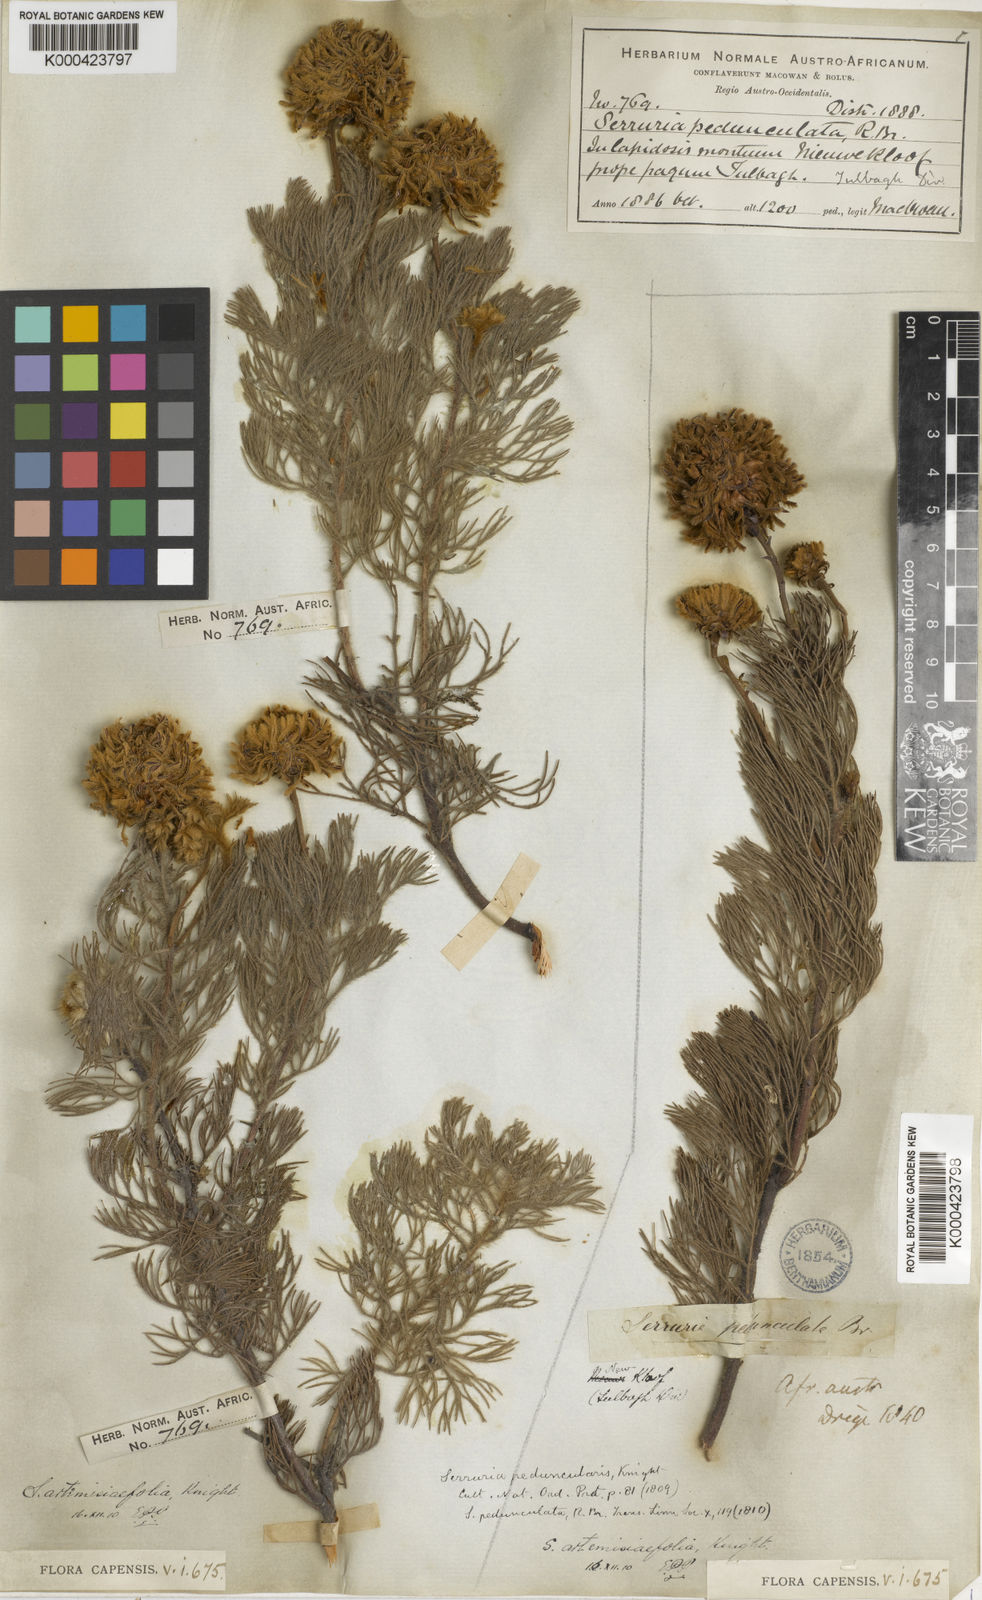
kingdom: Plantae
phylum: Tracheophyta
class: Magnoliopsida
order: Proteales
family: Proteaceae
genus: Serruria
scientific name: Serruria pedunculata
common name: Fan-leaf spiderhead
